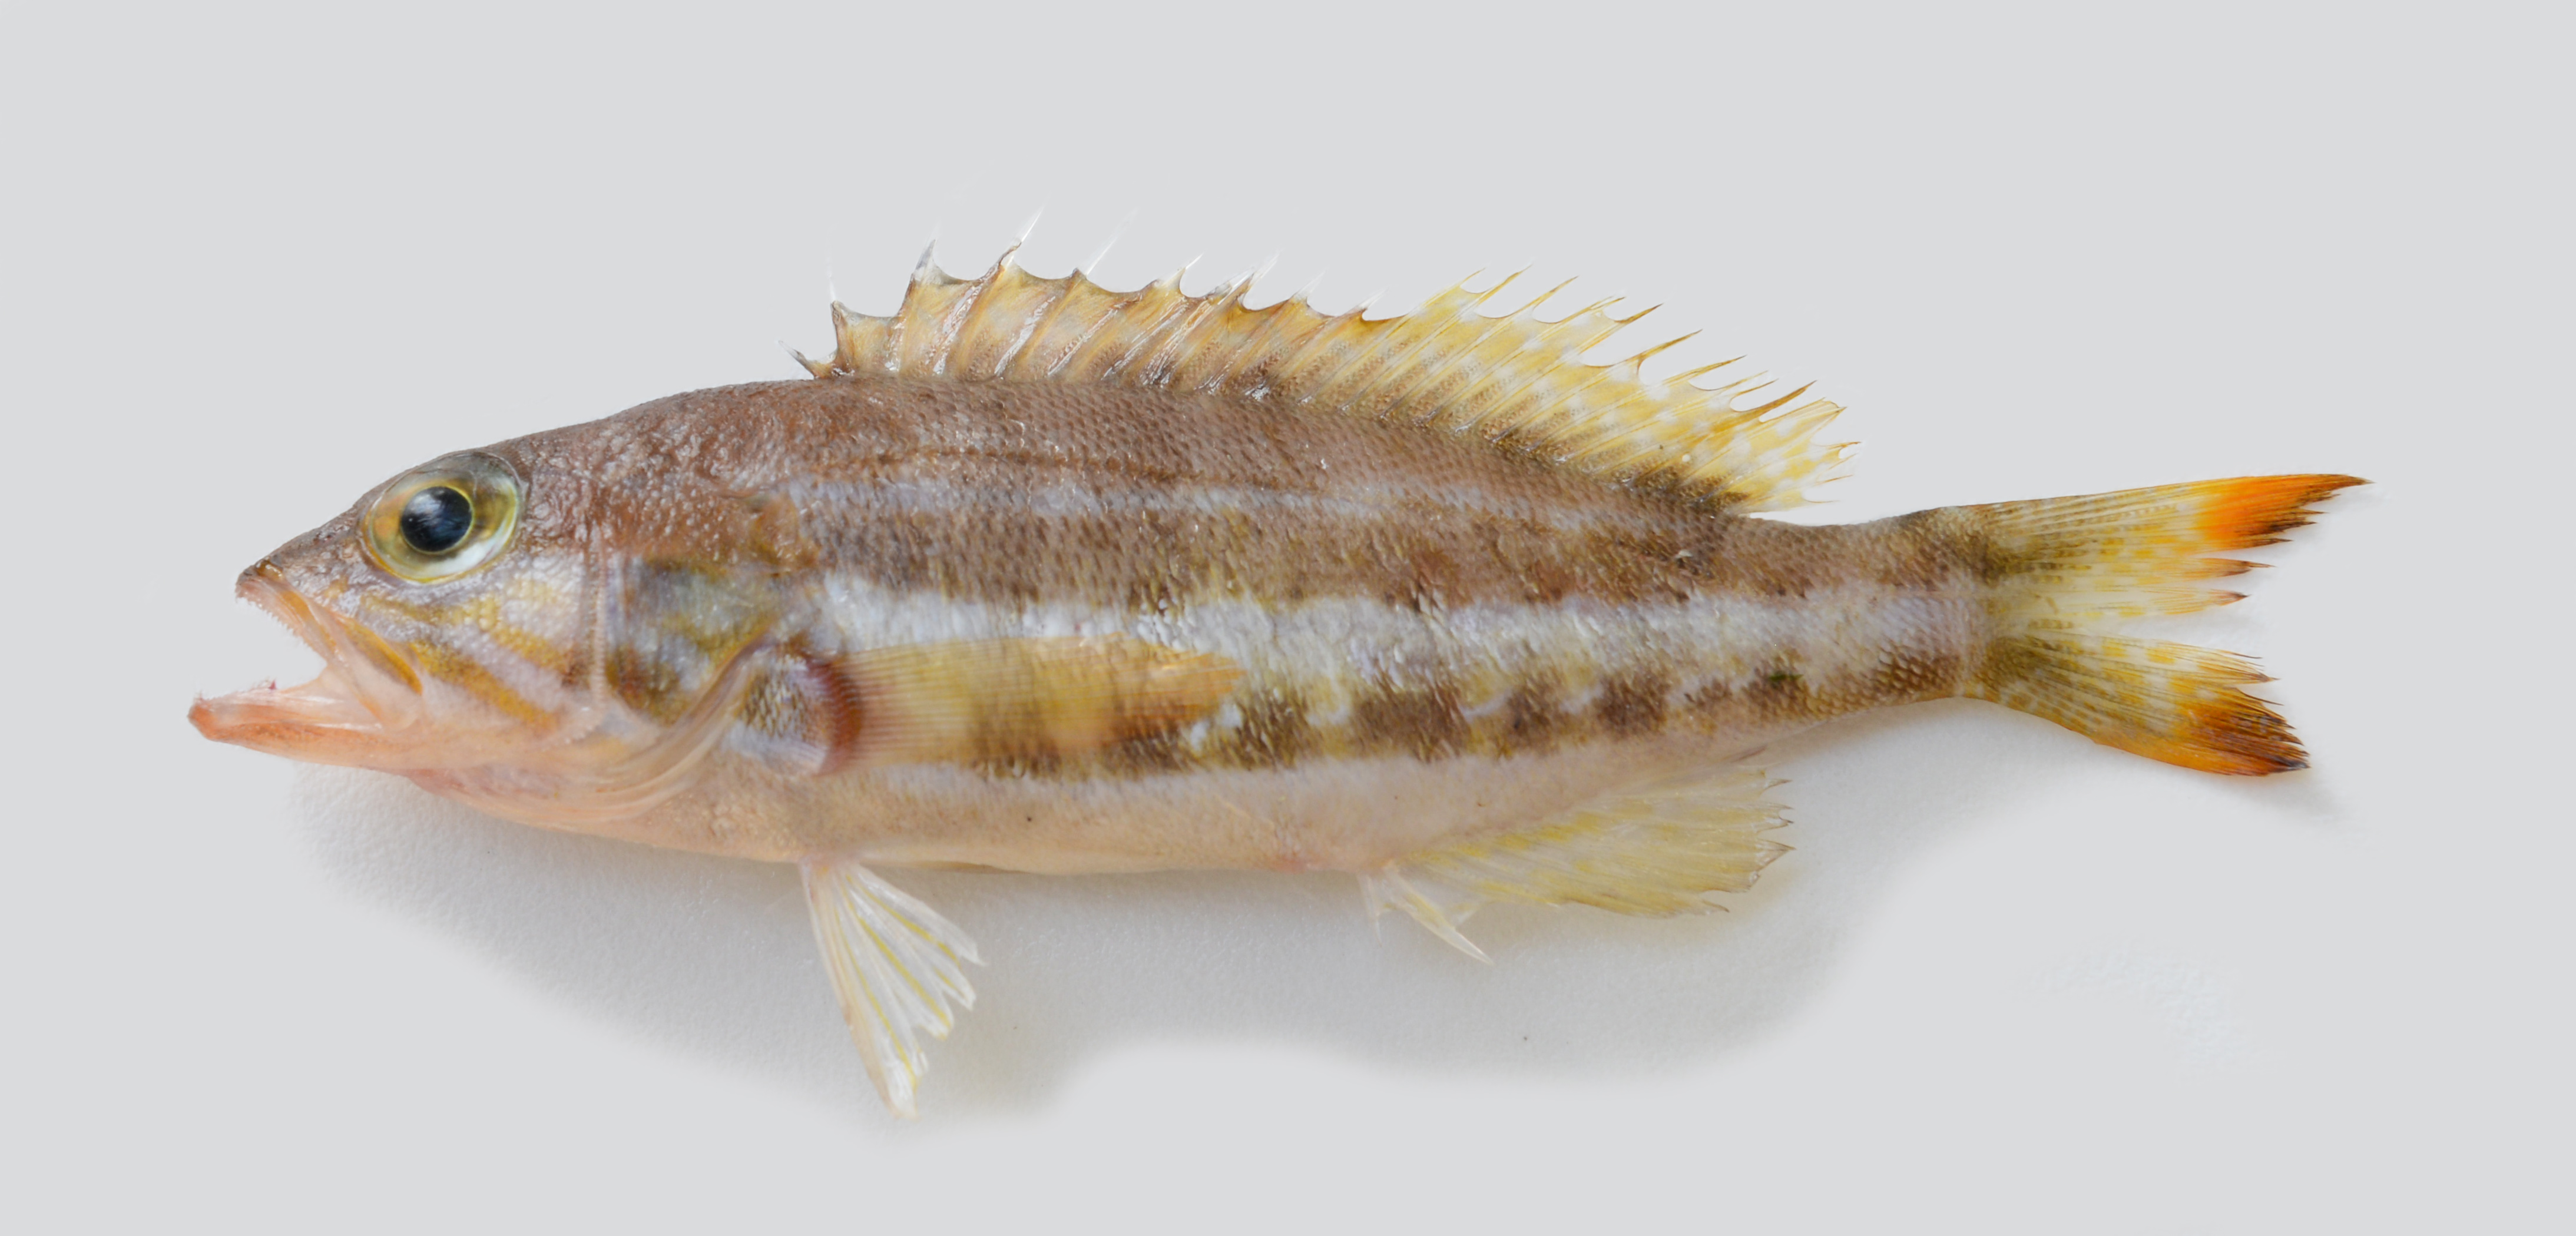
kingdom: Animalia
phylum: Chordata
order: Perciformes
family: Serranidae
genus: Serranus
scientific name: Serranus cabrilla
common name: Comber
